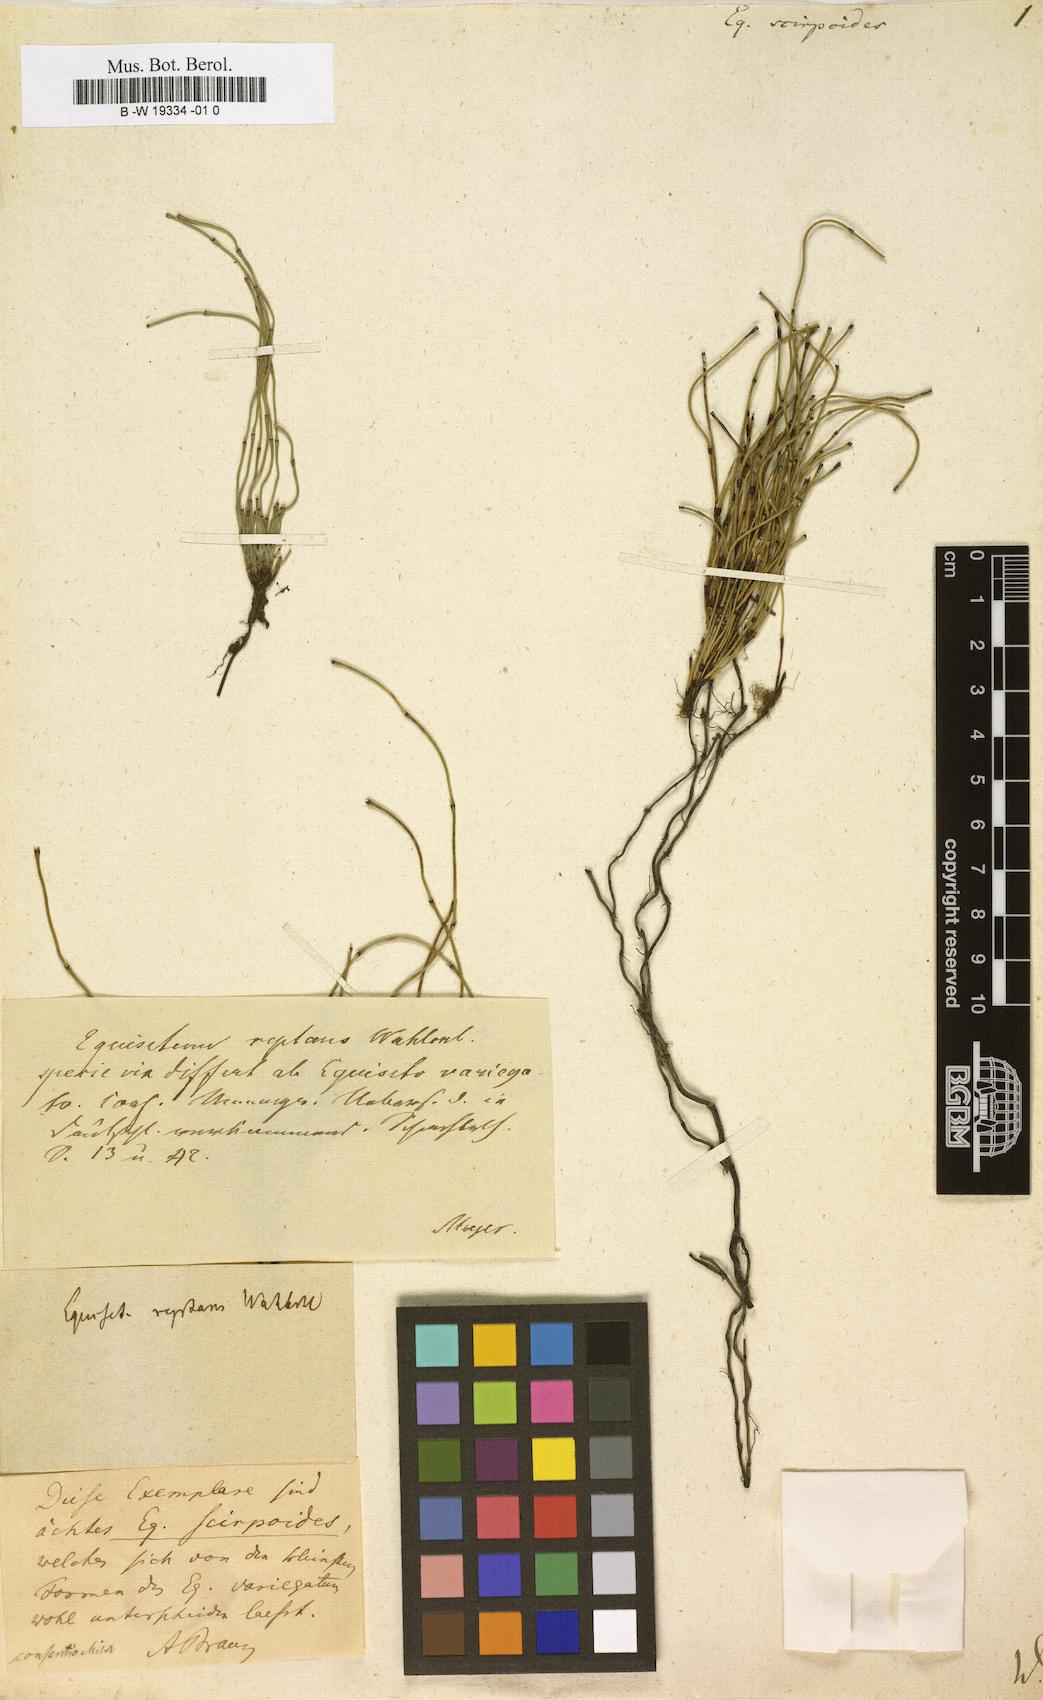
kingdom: Plantae
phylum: Tracheophyta
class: Polypodiopsida
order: Equisetales
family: Equisetaceae
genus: Equisetum
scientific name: Equisetum scirpoides
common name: Delicate horsetail
